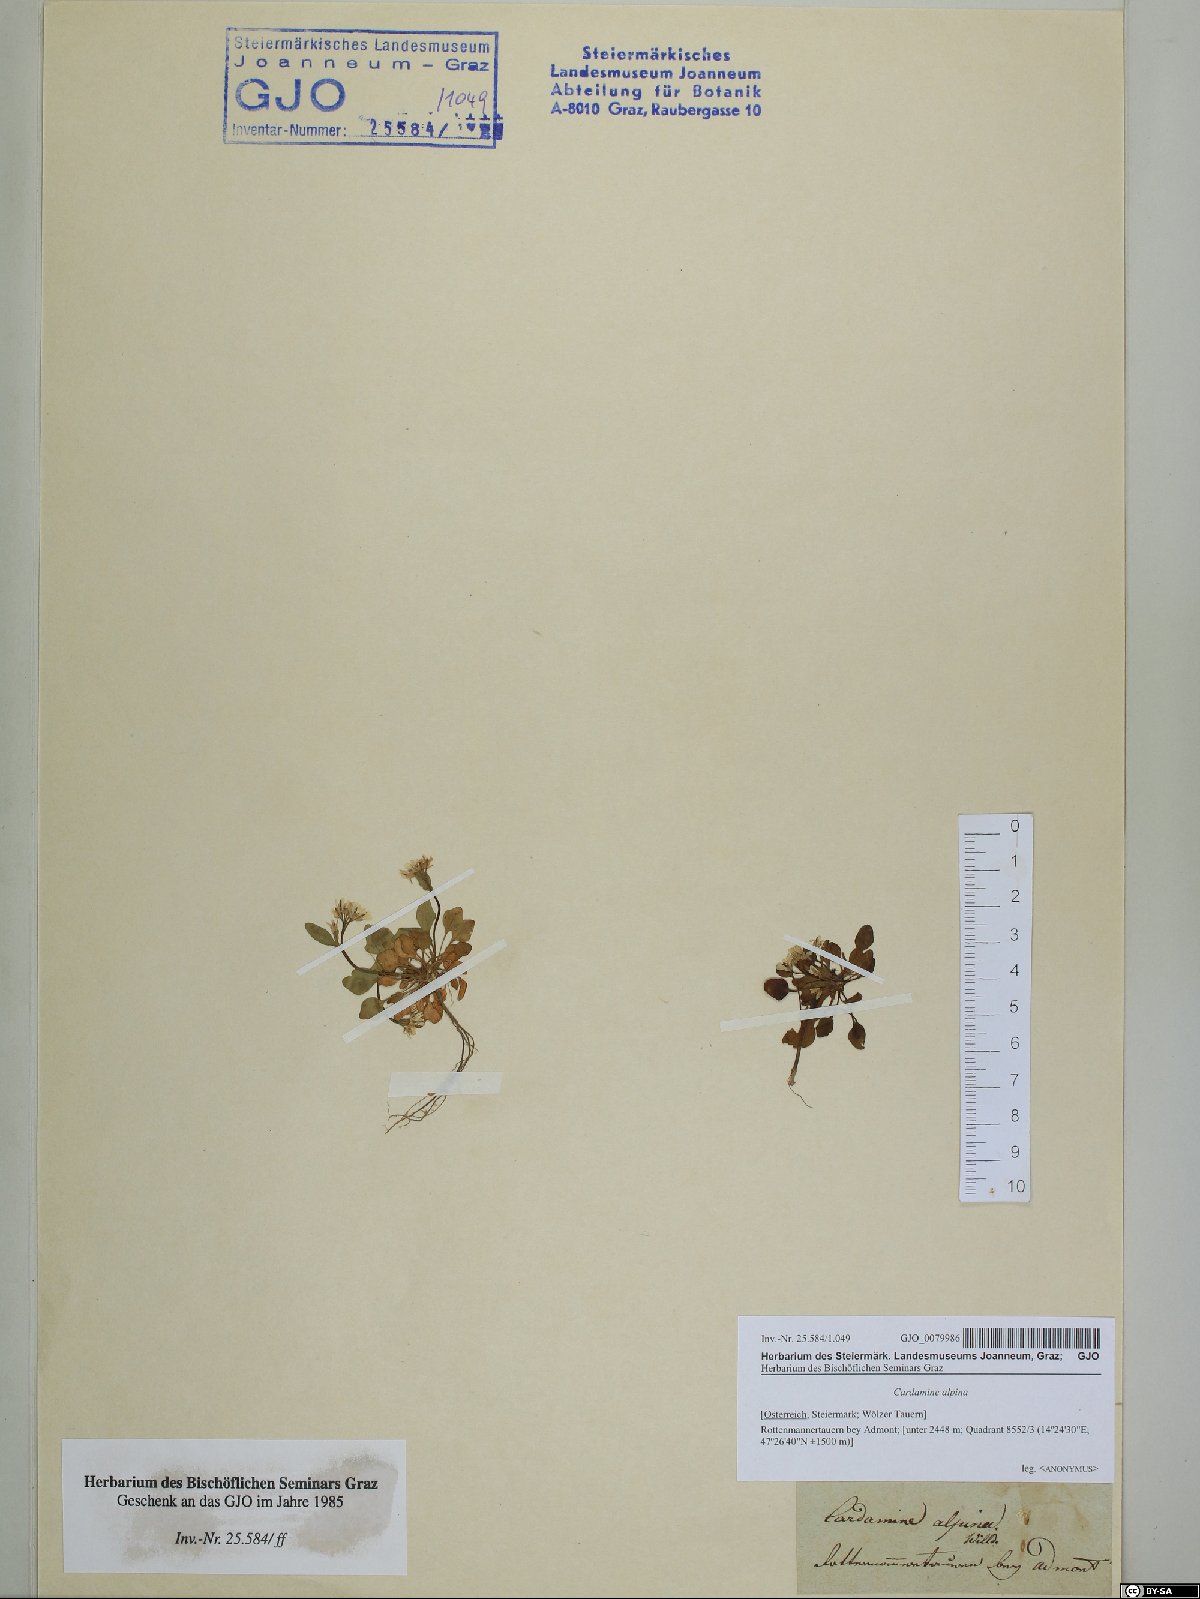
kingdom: Plantae
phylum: Tracheophyta
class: Magnoliopsida
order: Brassicales
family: Brassicaceae
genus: Cardamine
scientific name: Cardamine bellidifolia
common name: Alpine bittercress
